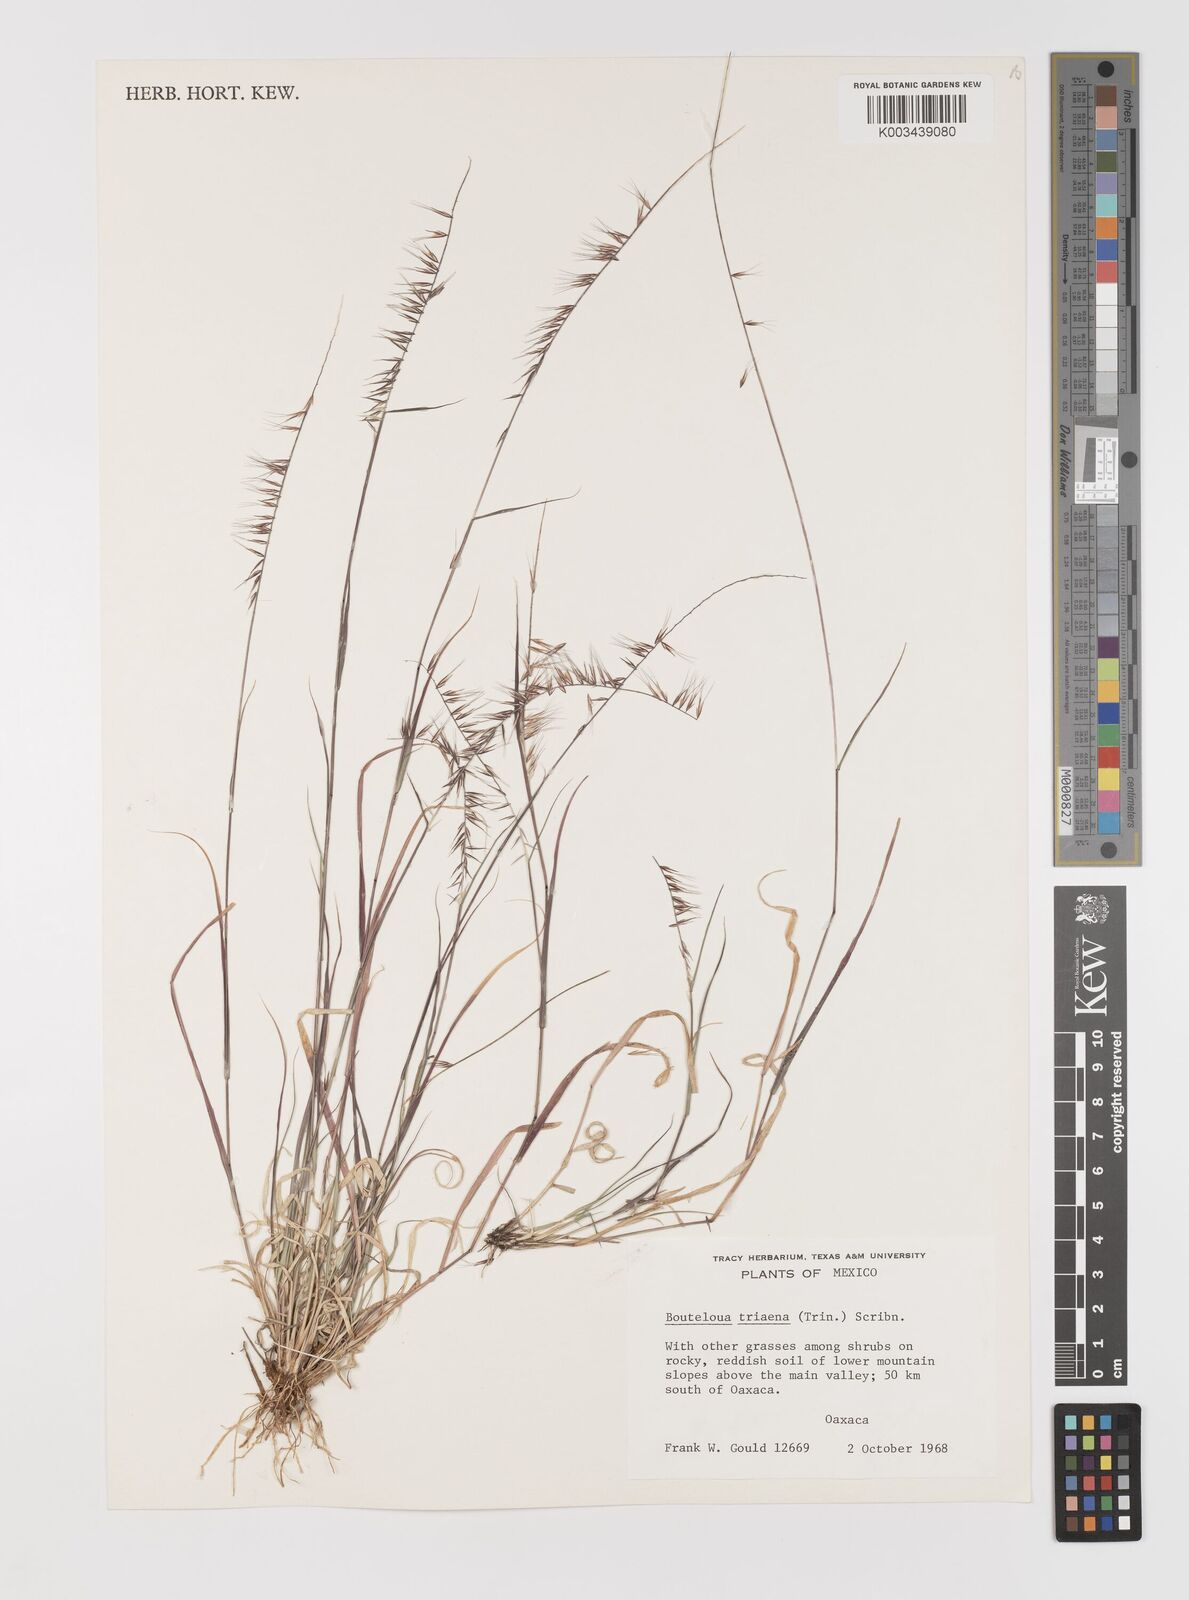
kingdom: Plantae
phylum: Tracheophyta
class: Liliopsida
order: Poales
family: Poaceae
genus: Bouteloua
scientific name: Bouteloua triaena
